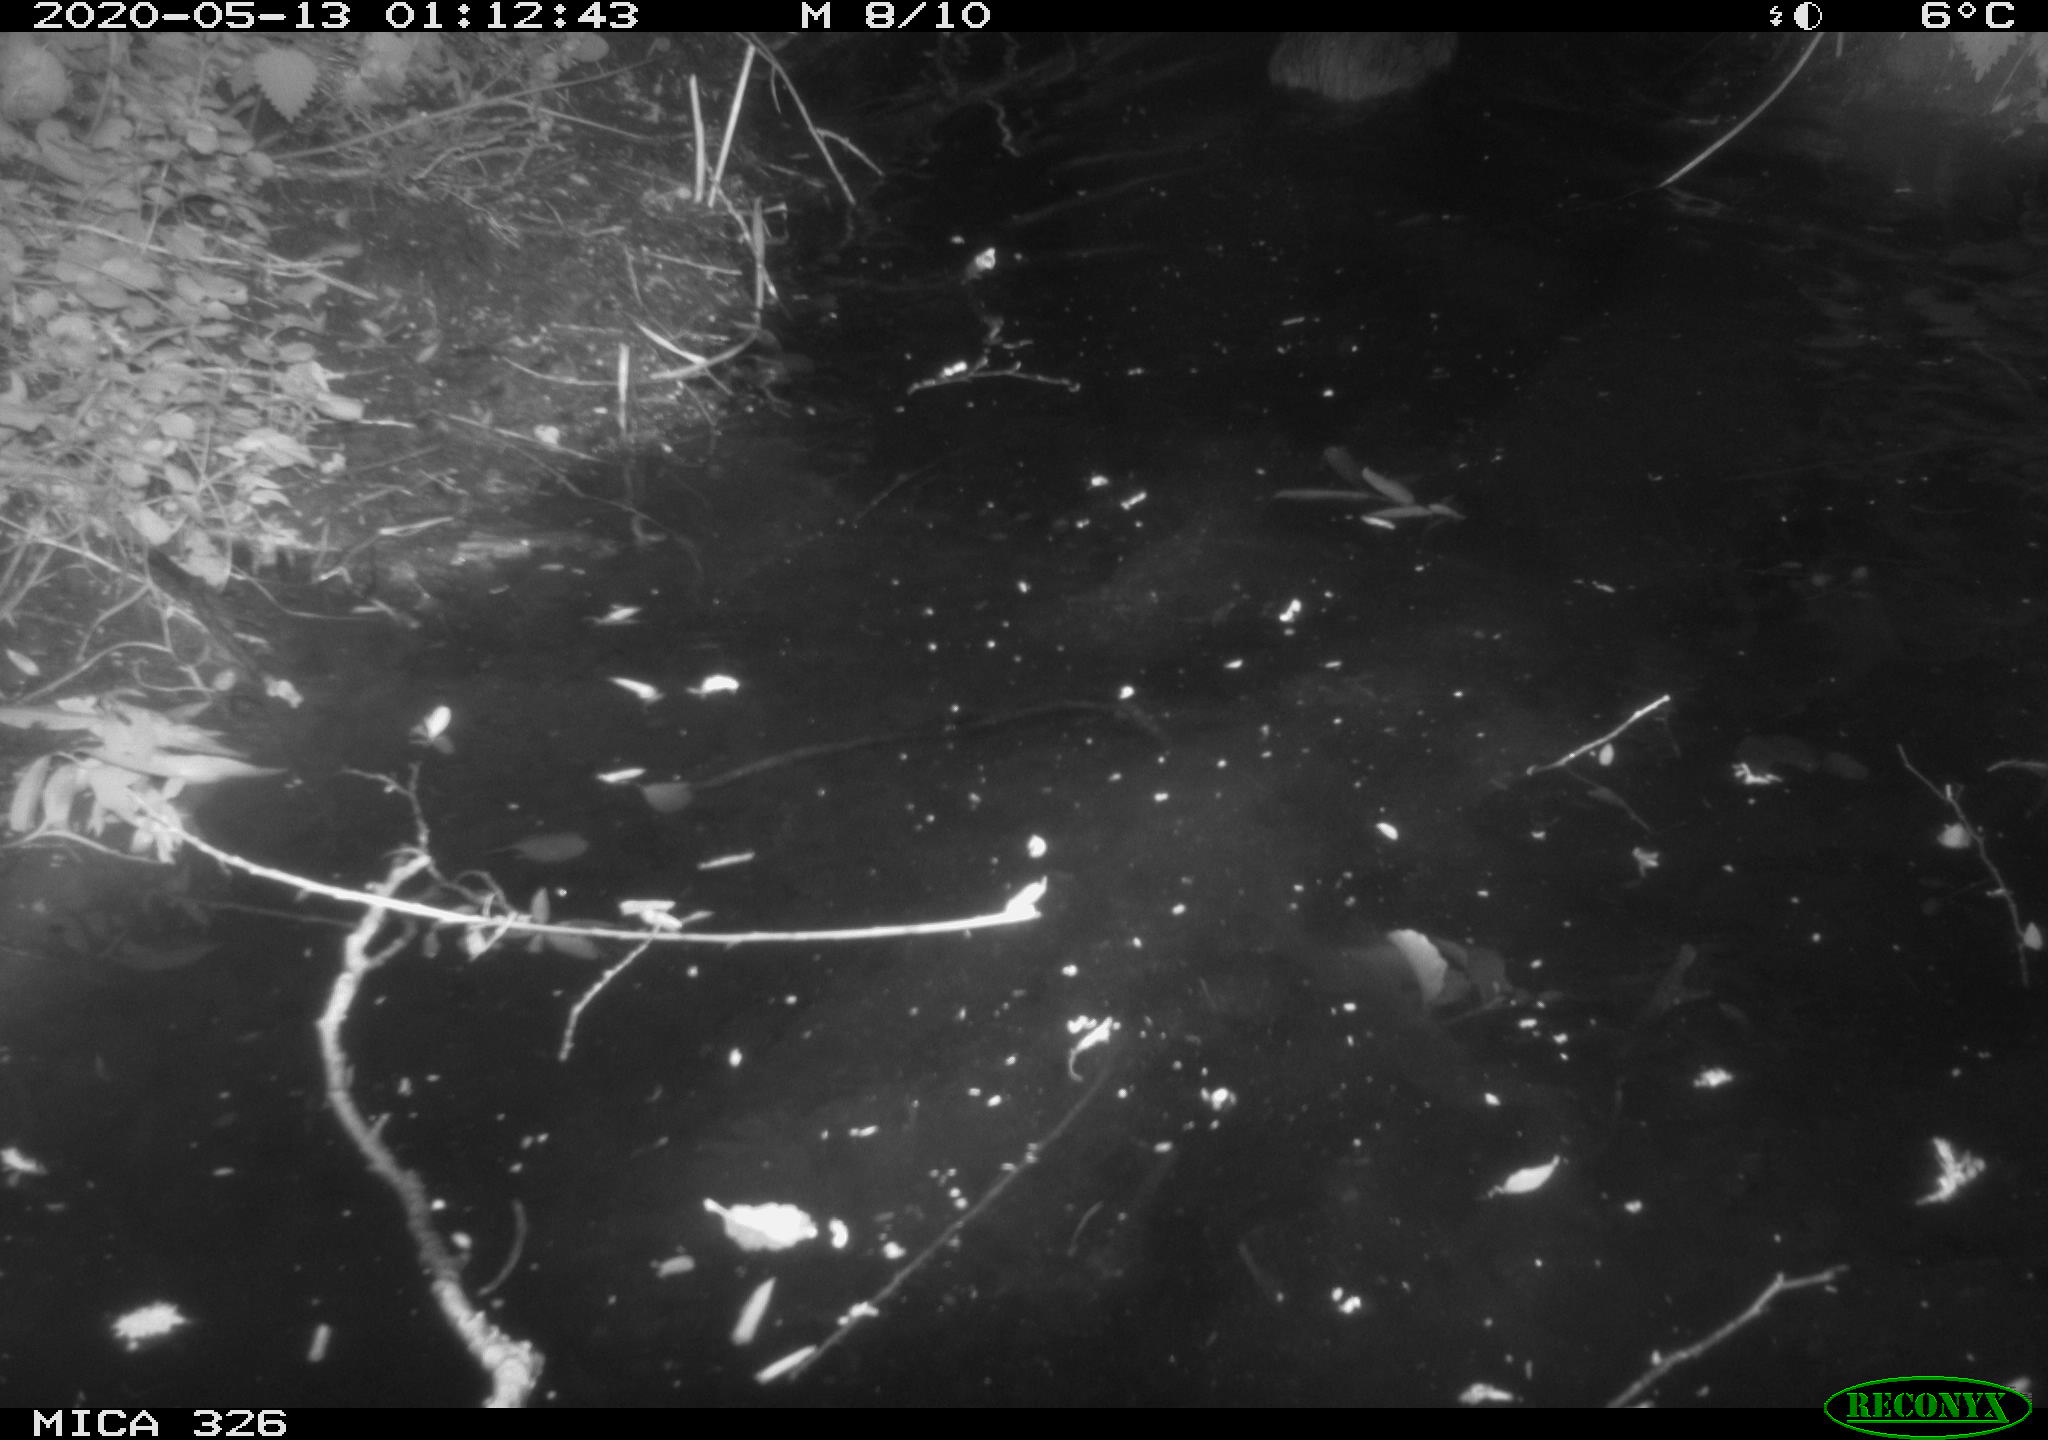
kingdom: Animalia
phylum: Chordata
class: Mammalia
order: Rodentia
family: Myocastoridae
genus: Myocastor
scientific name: Myocastor coypus
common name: Coypu
